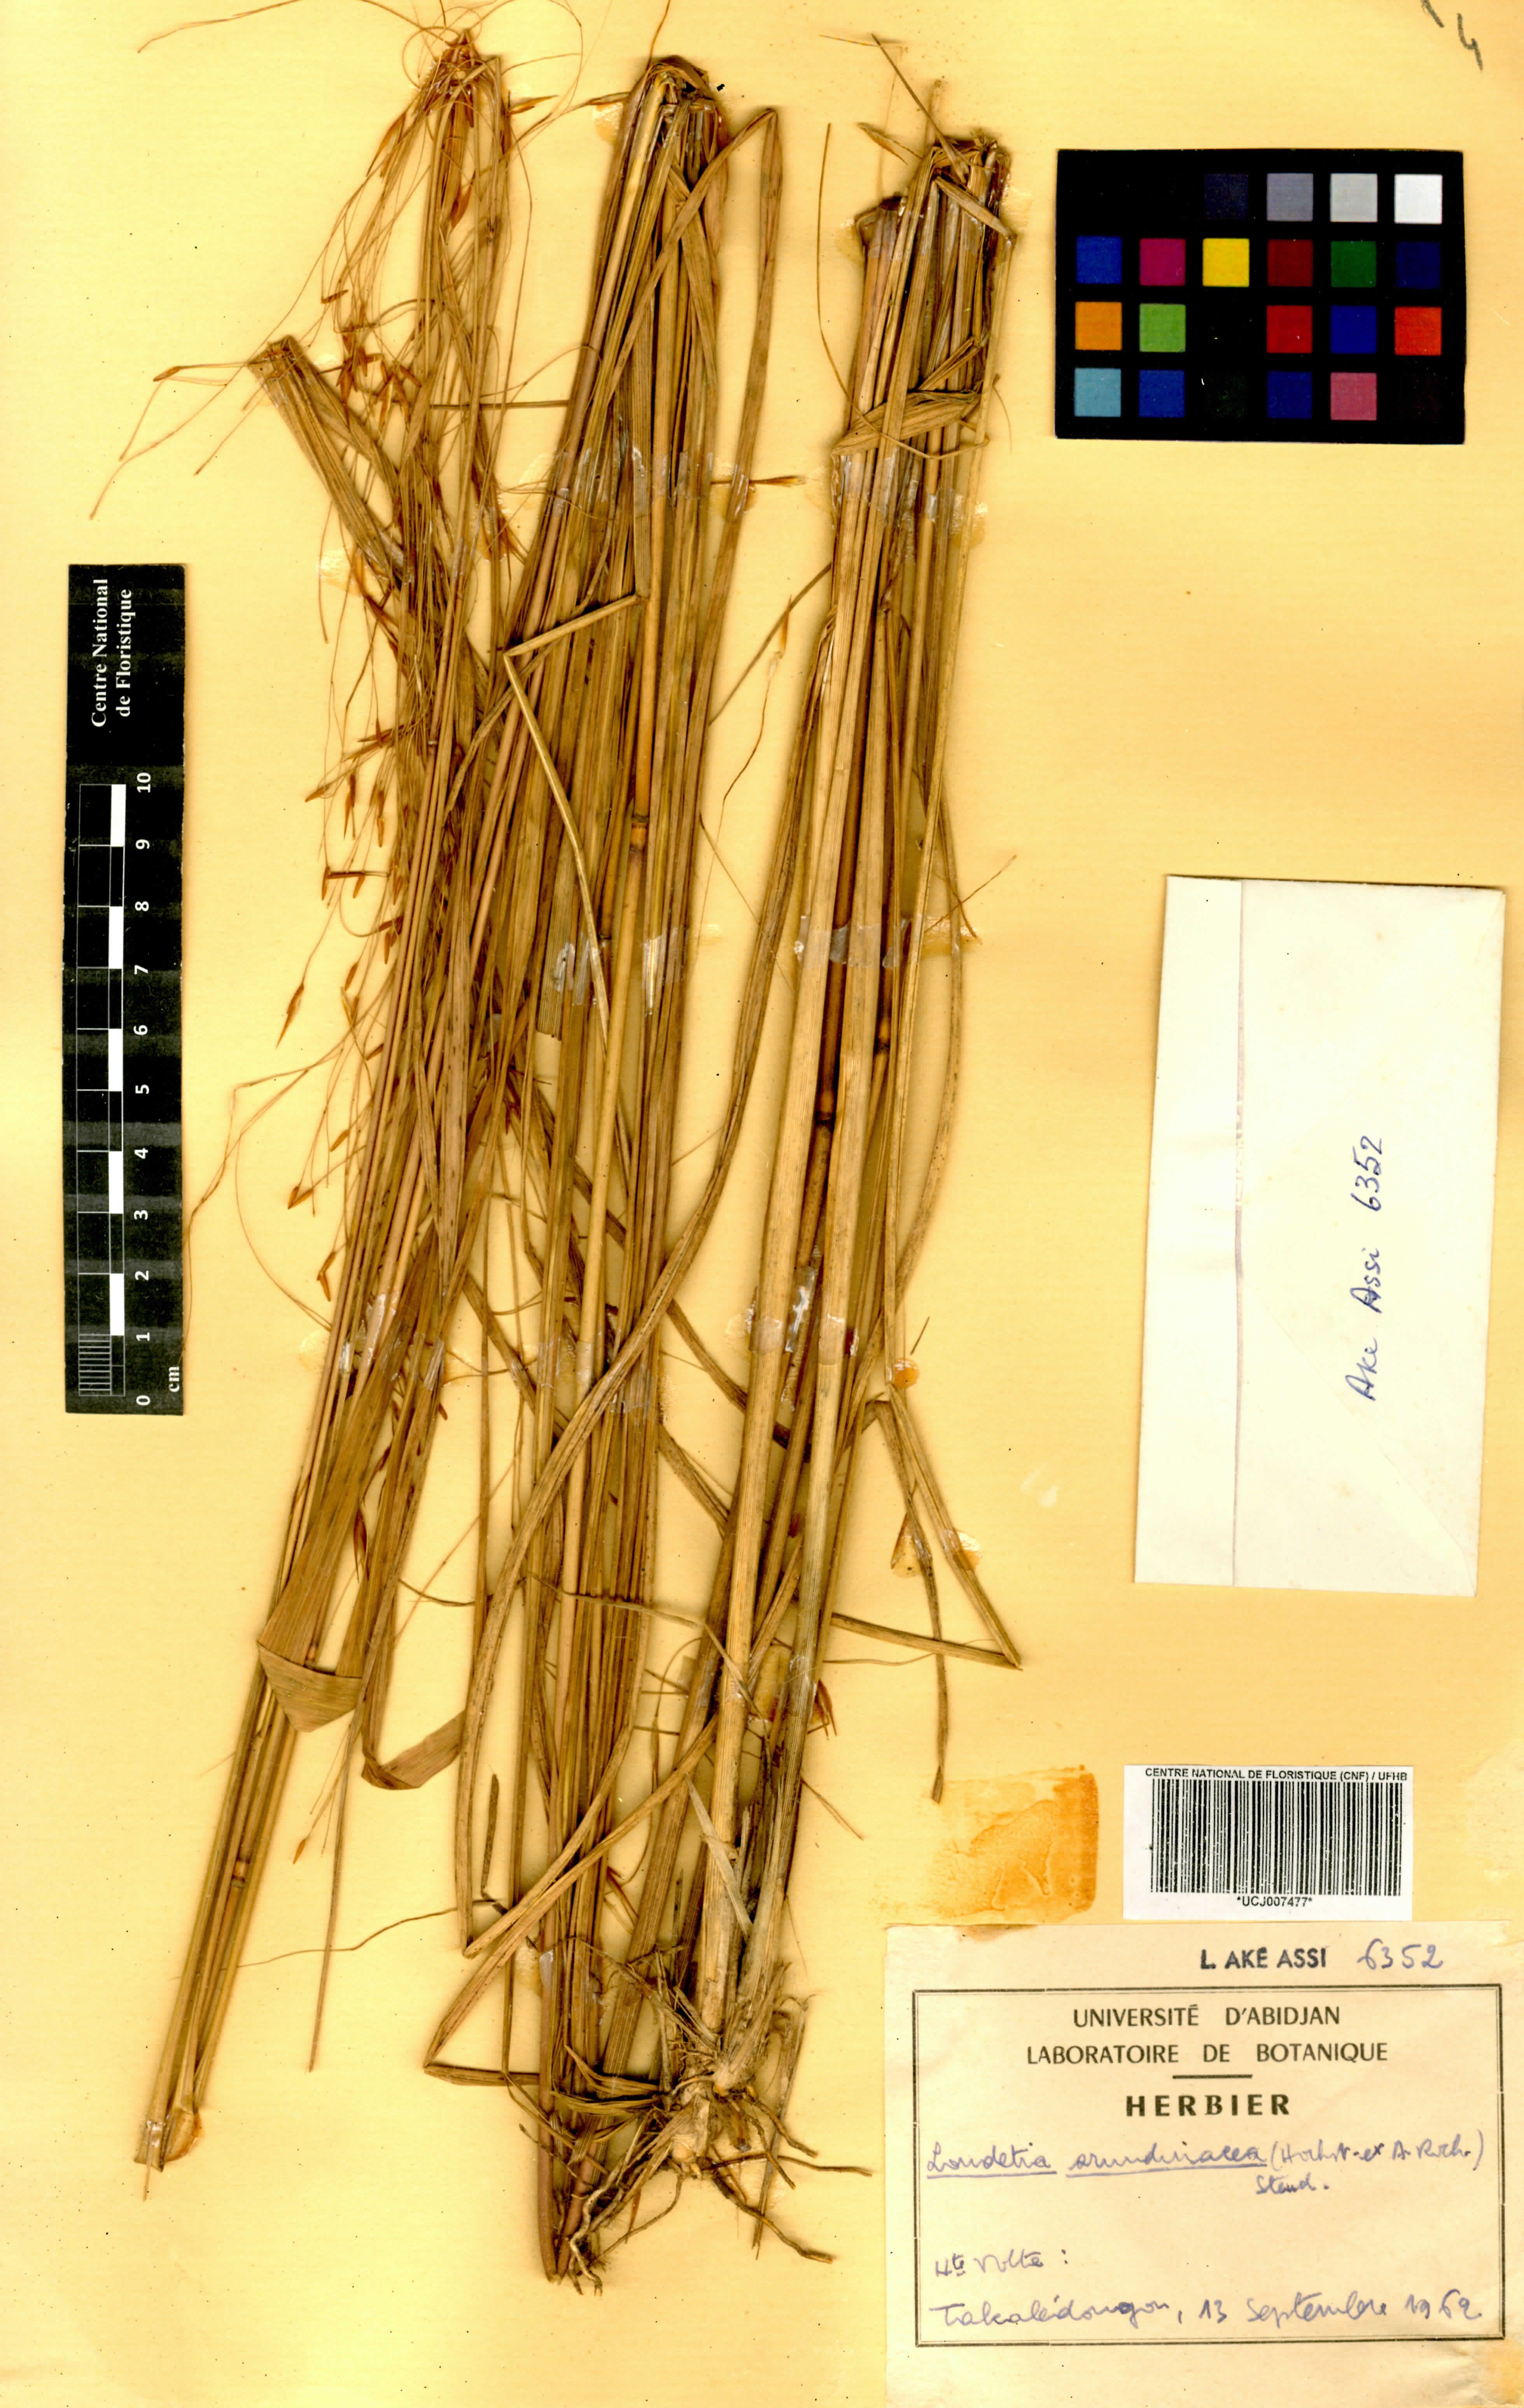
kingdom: Plantae
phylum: Tracheophyta
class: Liliopsida
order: Poales
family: Poaceae
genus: Loudetia
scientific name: Loudetia arundinacea
